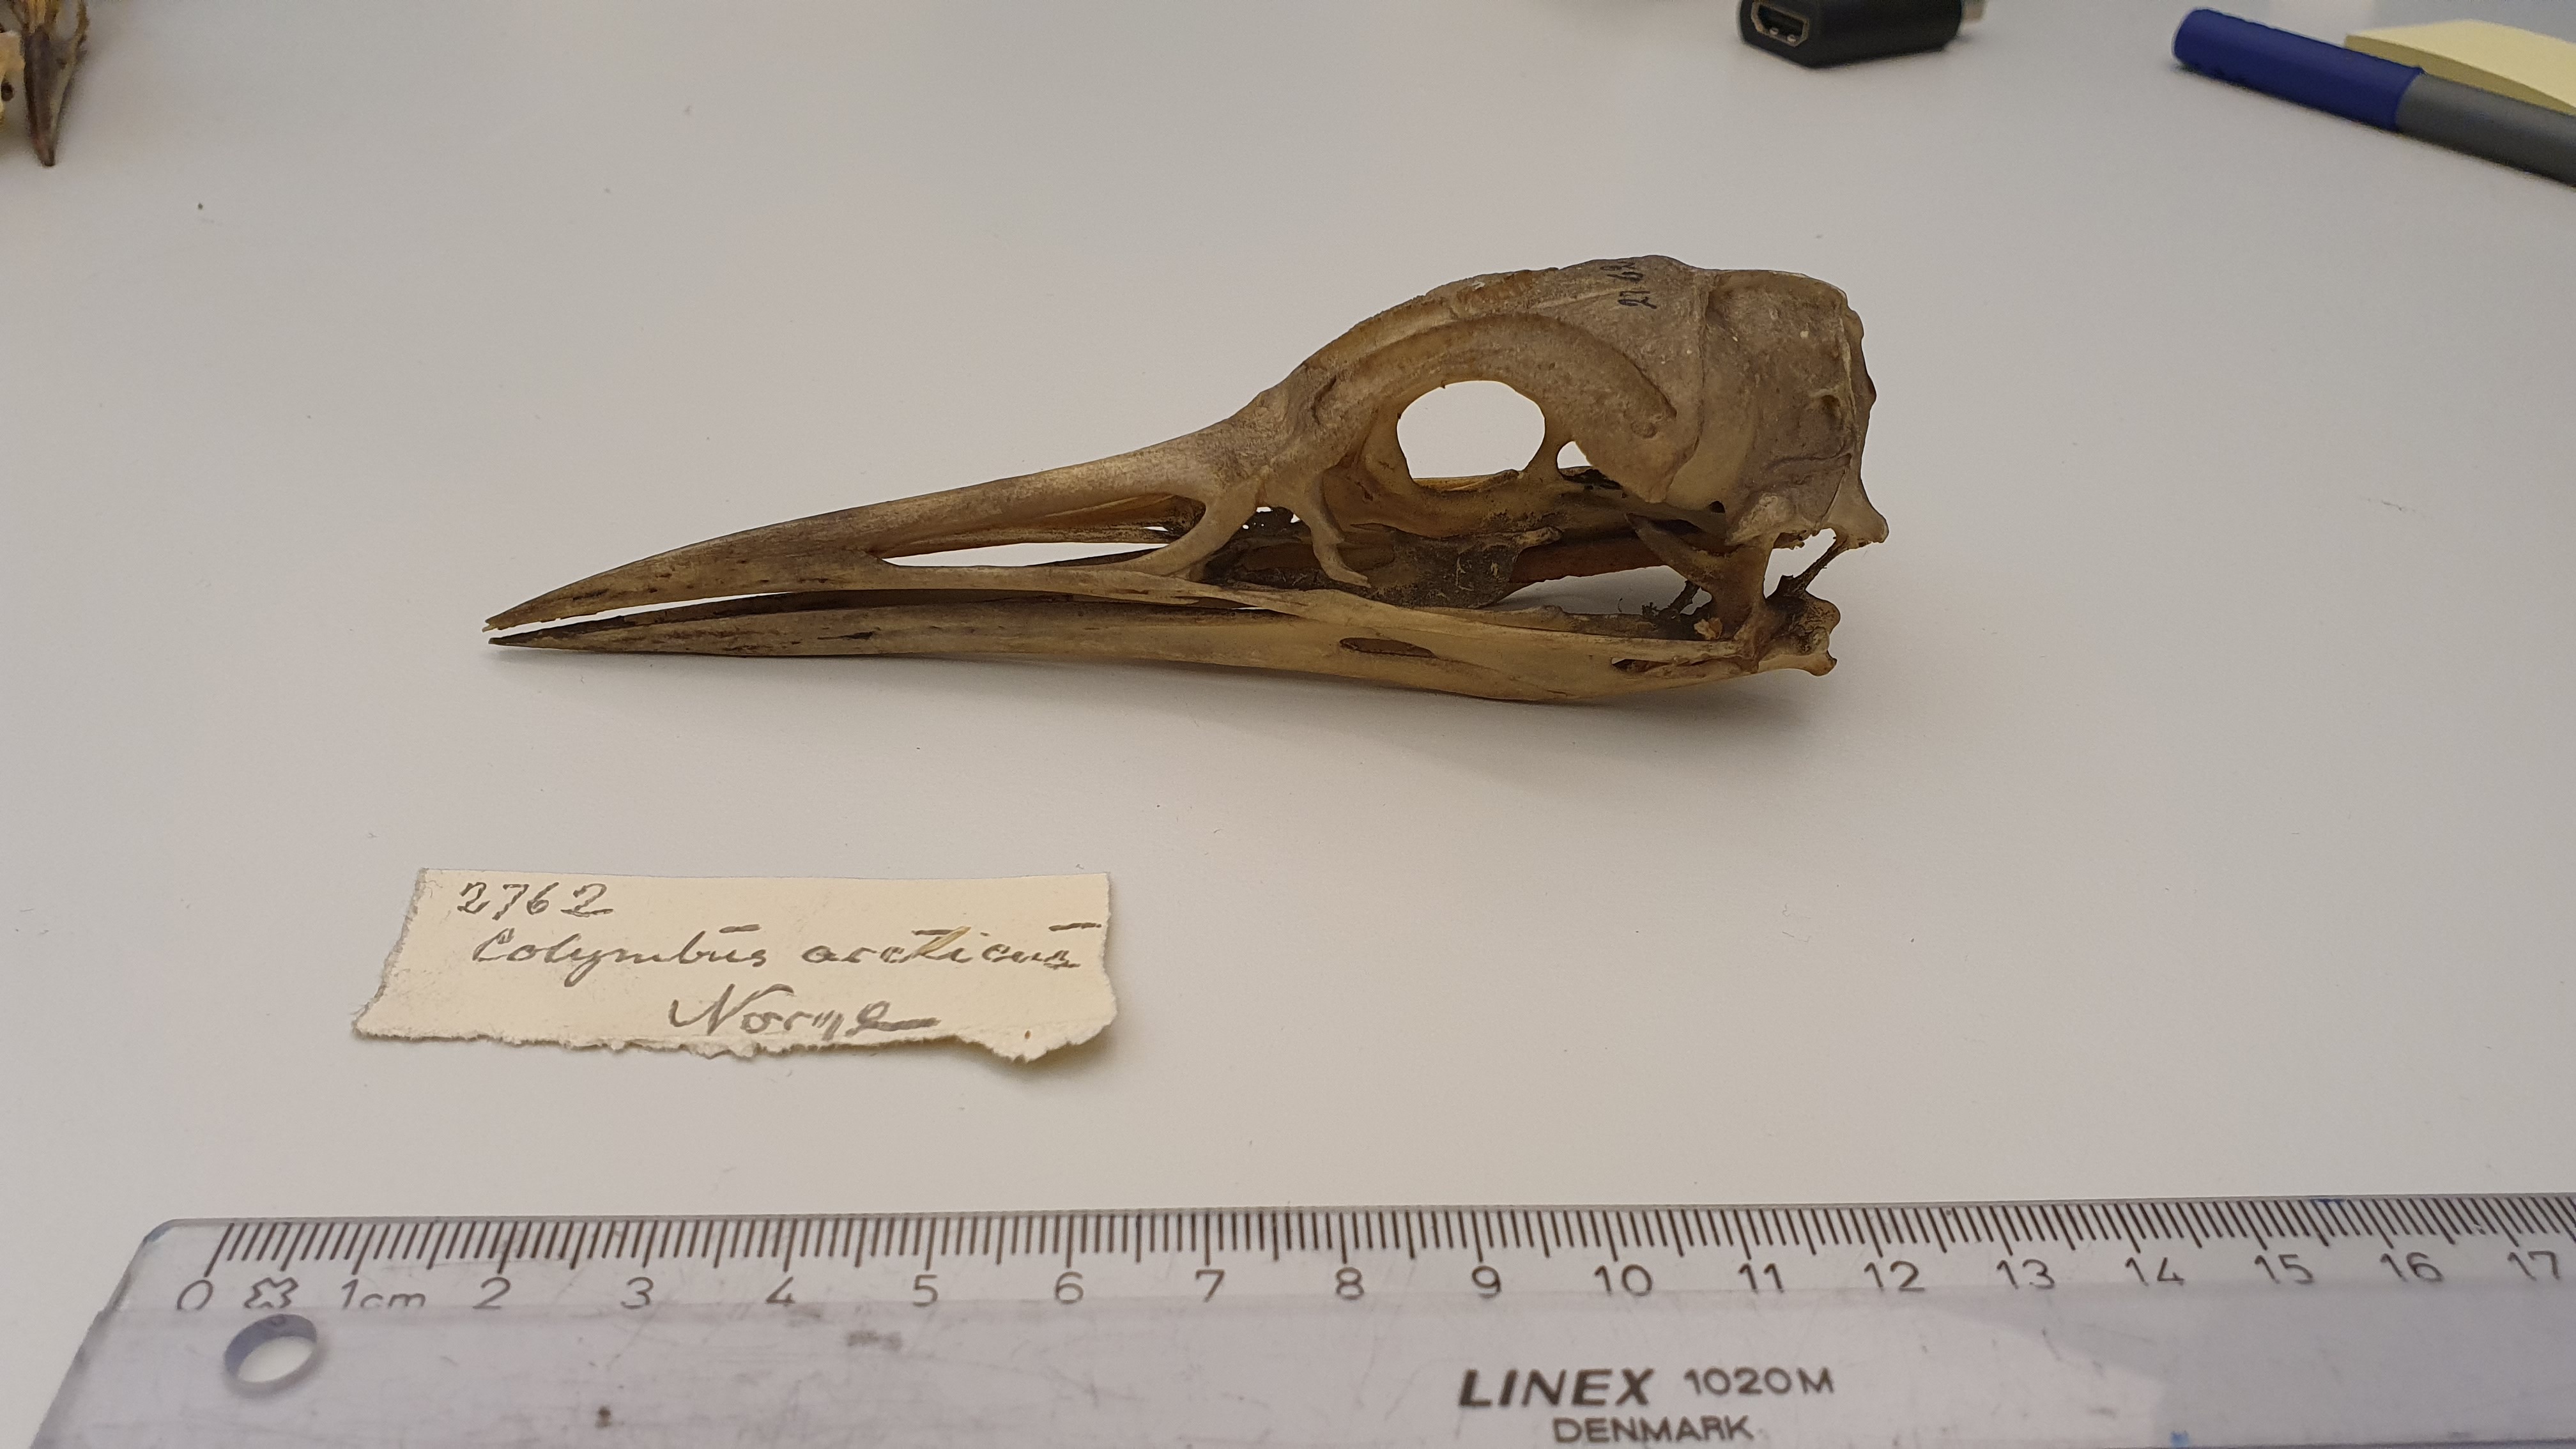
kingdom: Animalia
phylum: Chordata
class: Aves
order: Gaviiformes
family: Gaviidae
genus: Gavia
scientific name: Gavia arctica
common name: Black-throated loon
